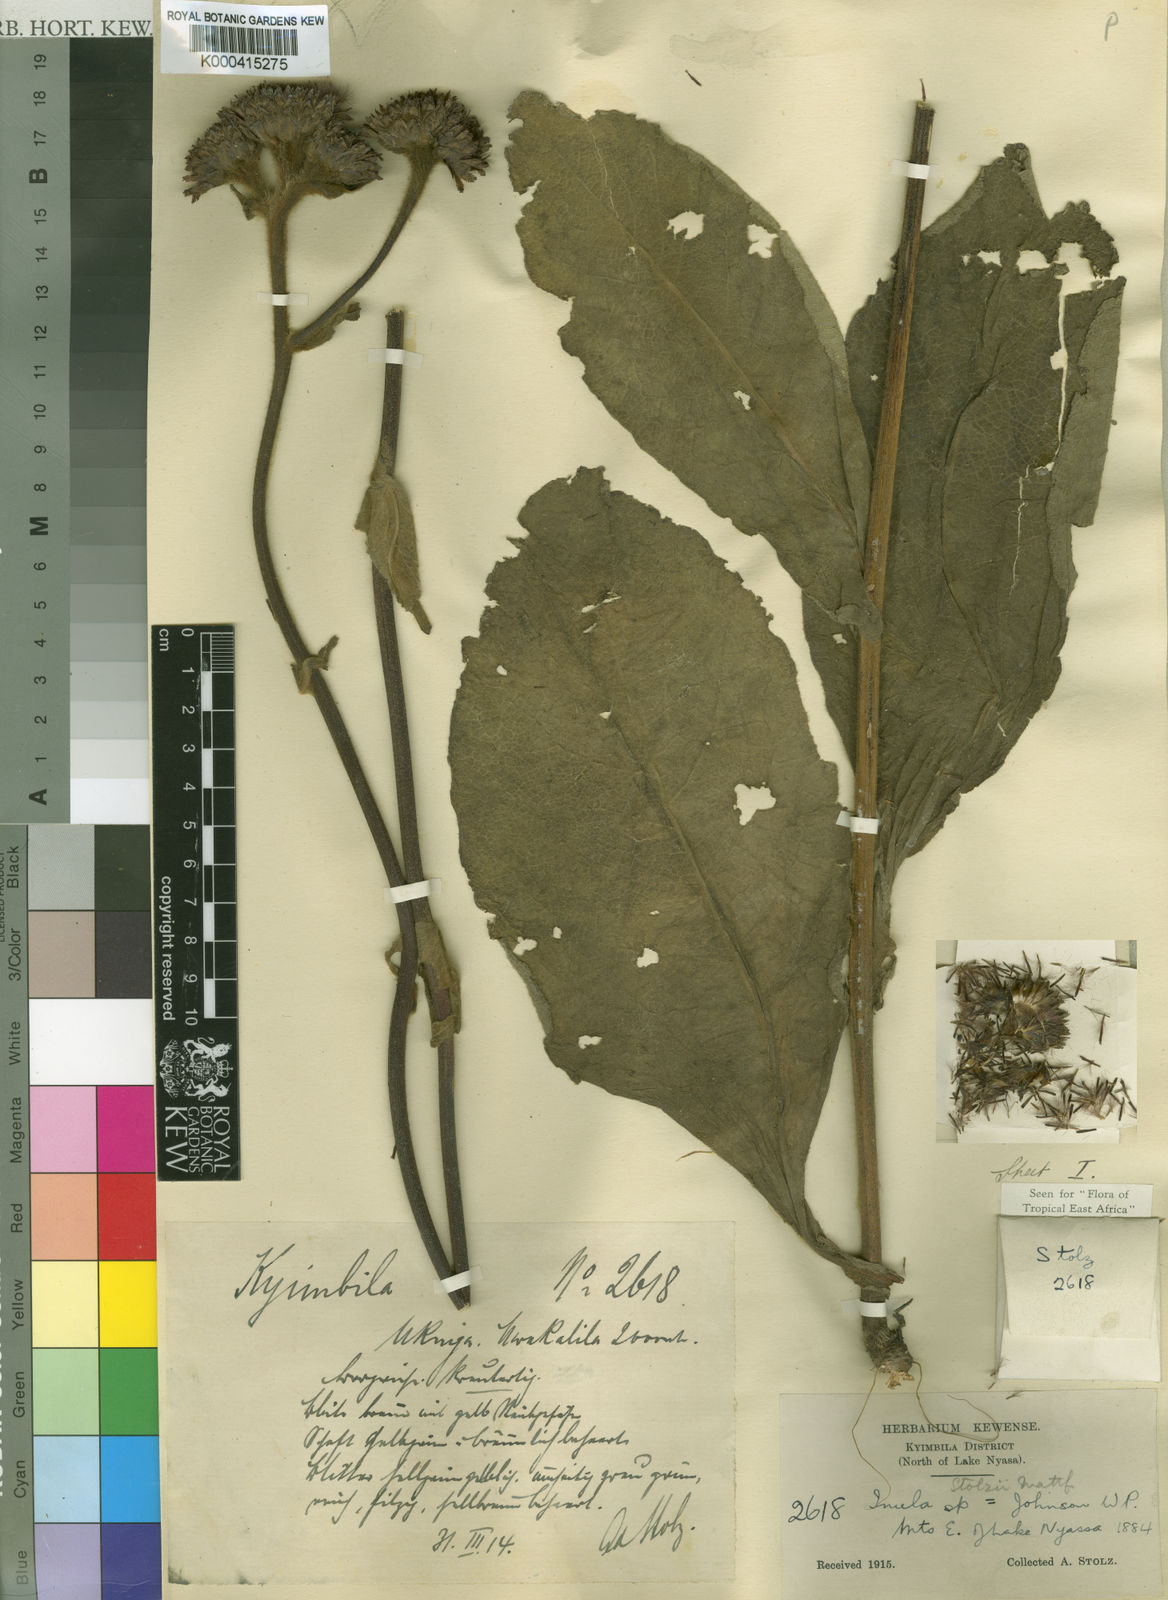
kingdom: Plantae
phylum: Tracheophyta
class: Magnoliopsida
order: Asterales
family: Asteraceae
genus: Inula
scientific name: Inula stolzii
